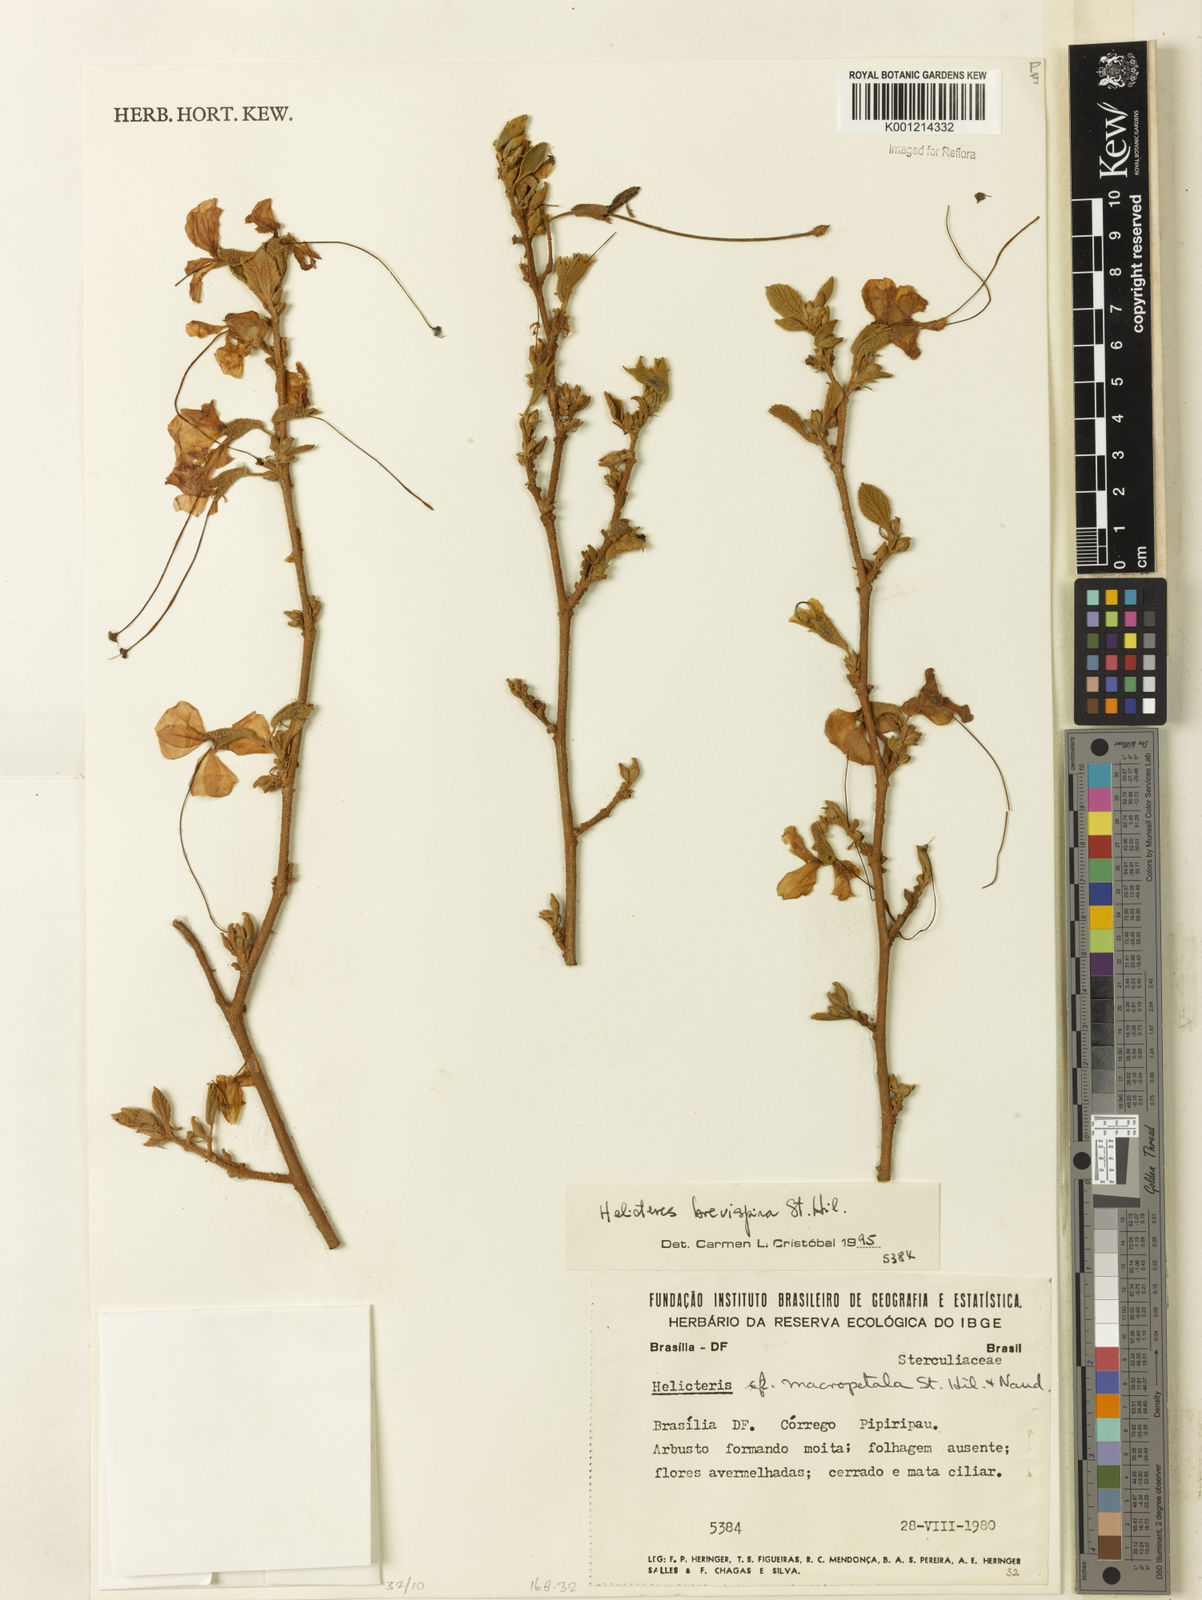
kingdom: Plantae
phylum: Tracheophyta
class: Magnoliopsida
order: Malvales
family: Malvaceae
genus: Helicteres
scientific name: Helicteres
